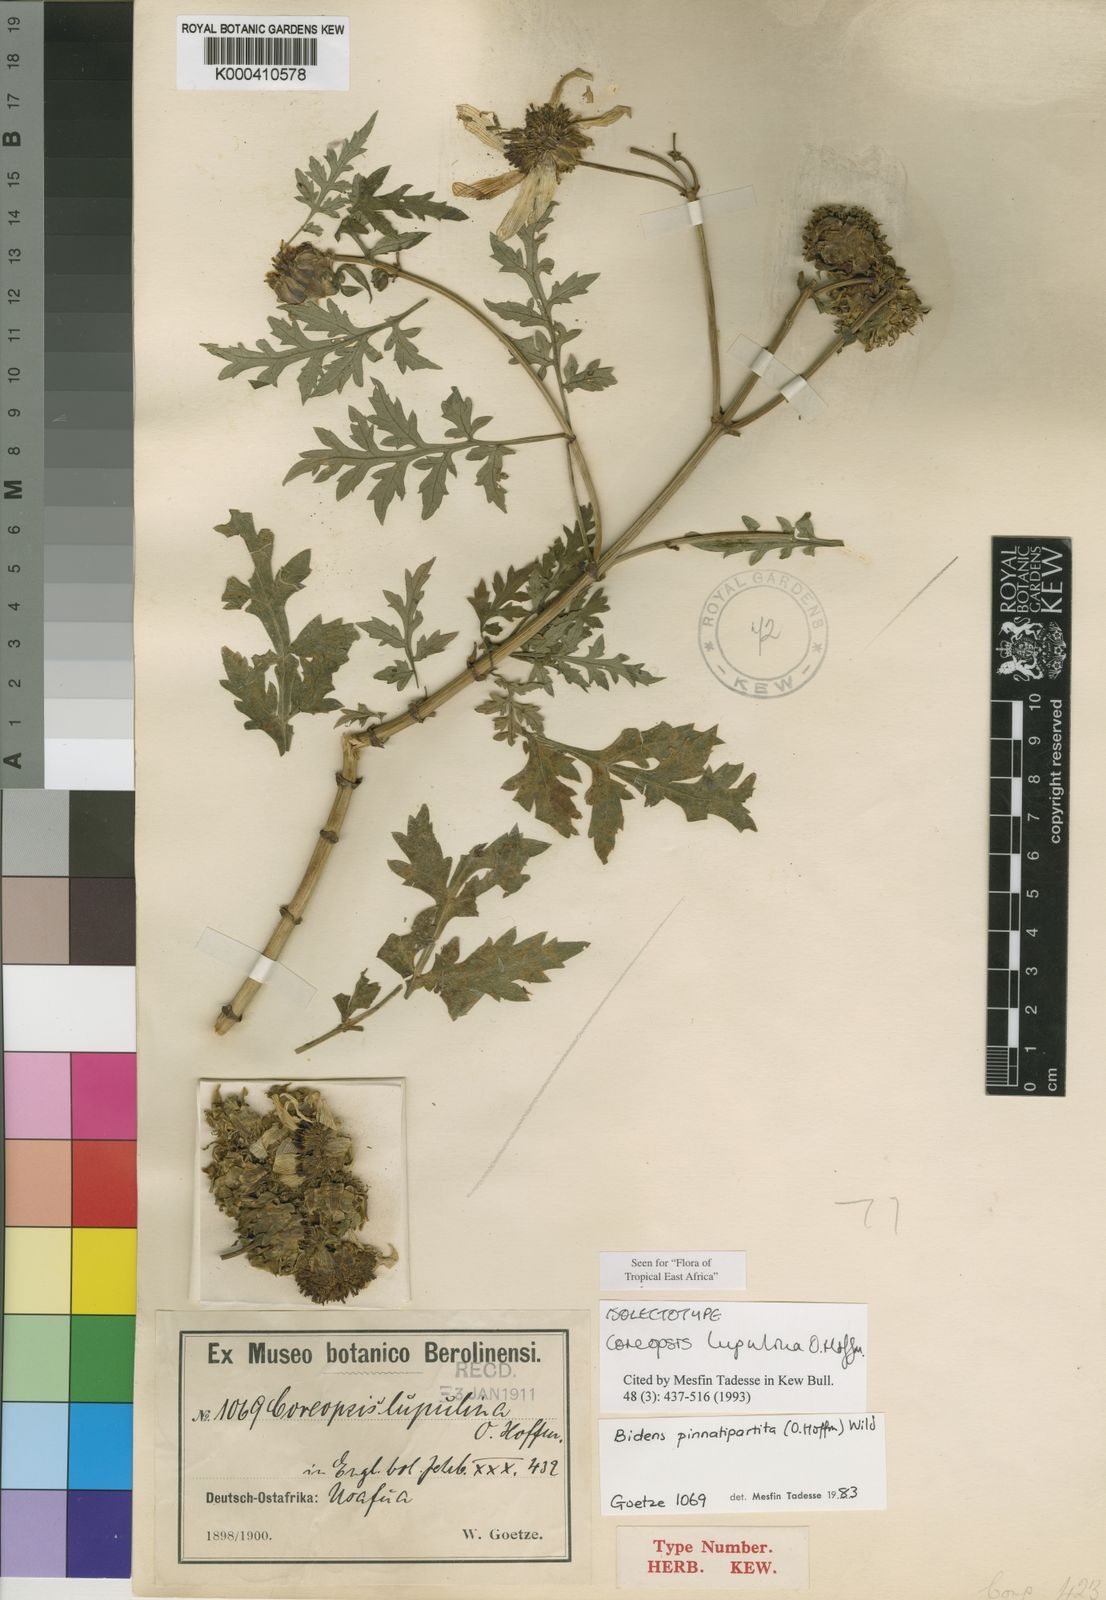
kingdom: Plantae
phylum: Tracheophyta
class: Magnoliopsida
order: Asterales
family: Asteraceae
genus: Bidens
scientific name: Bidens pinnatipartita
